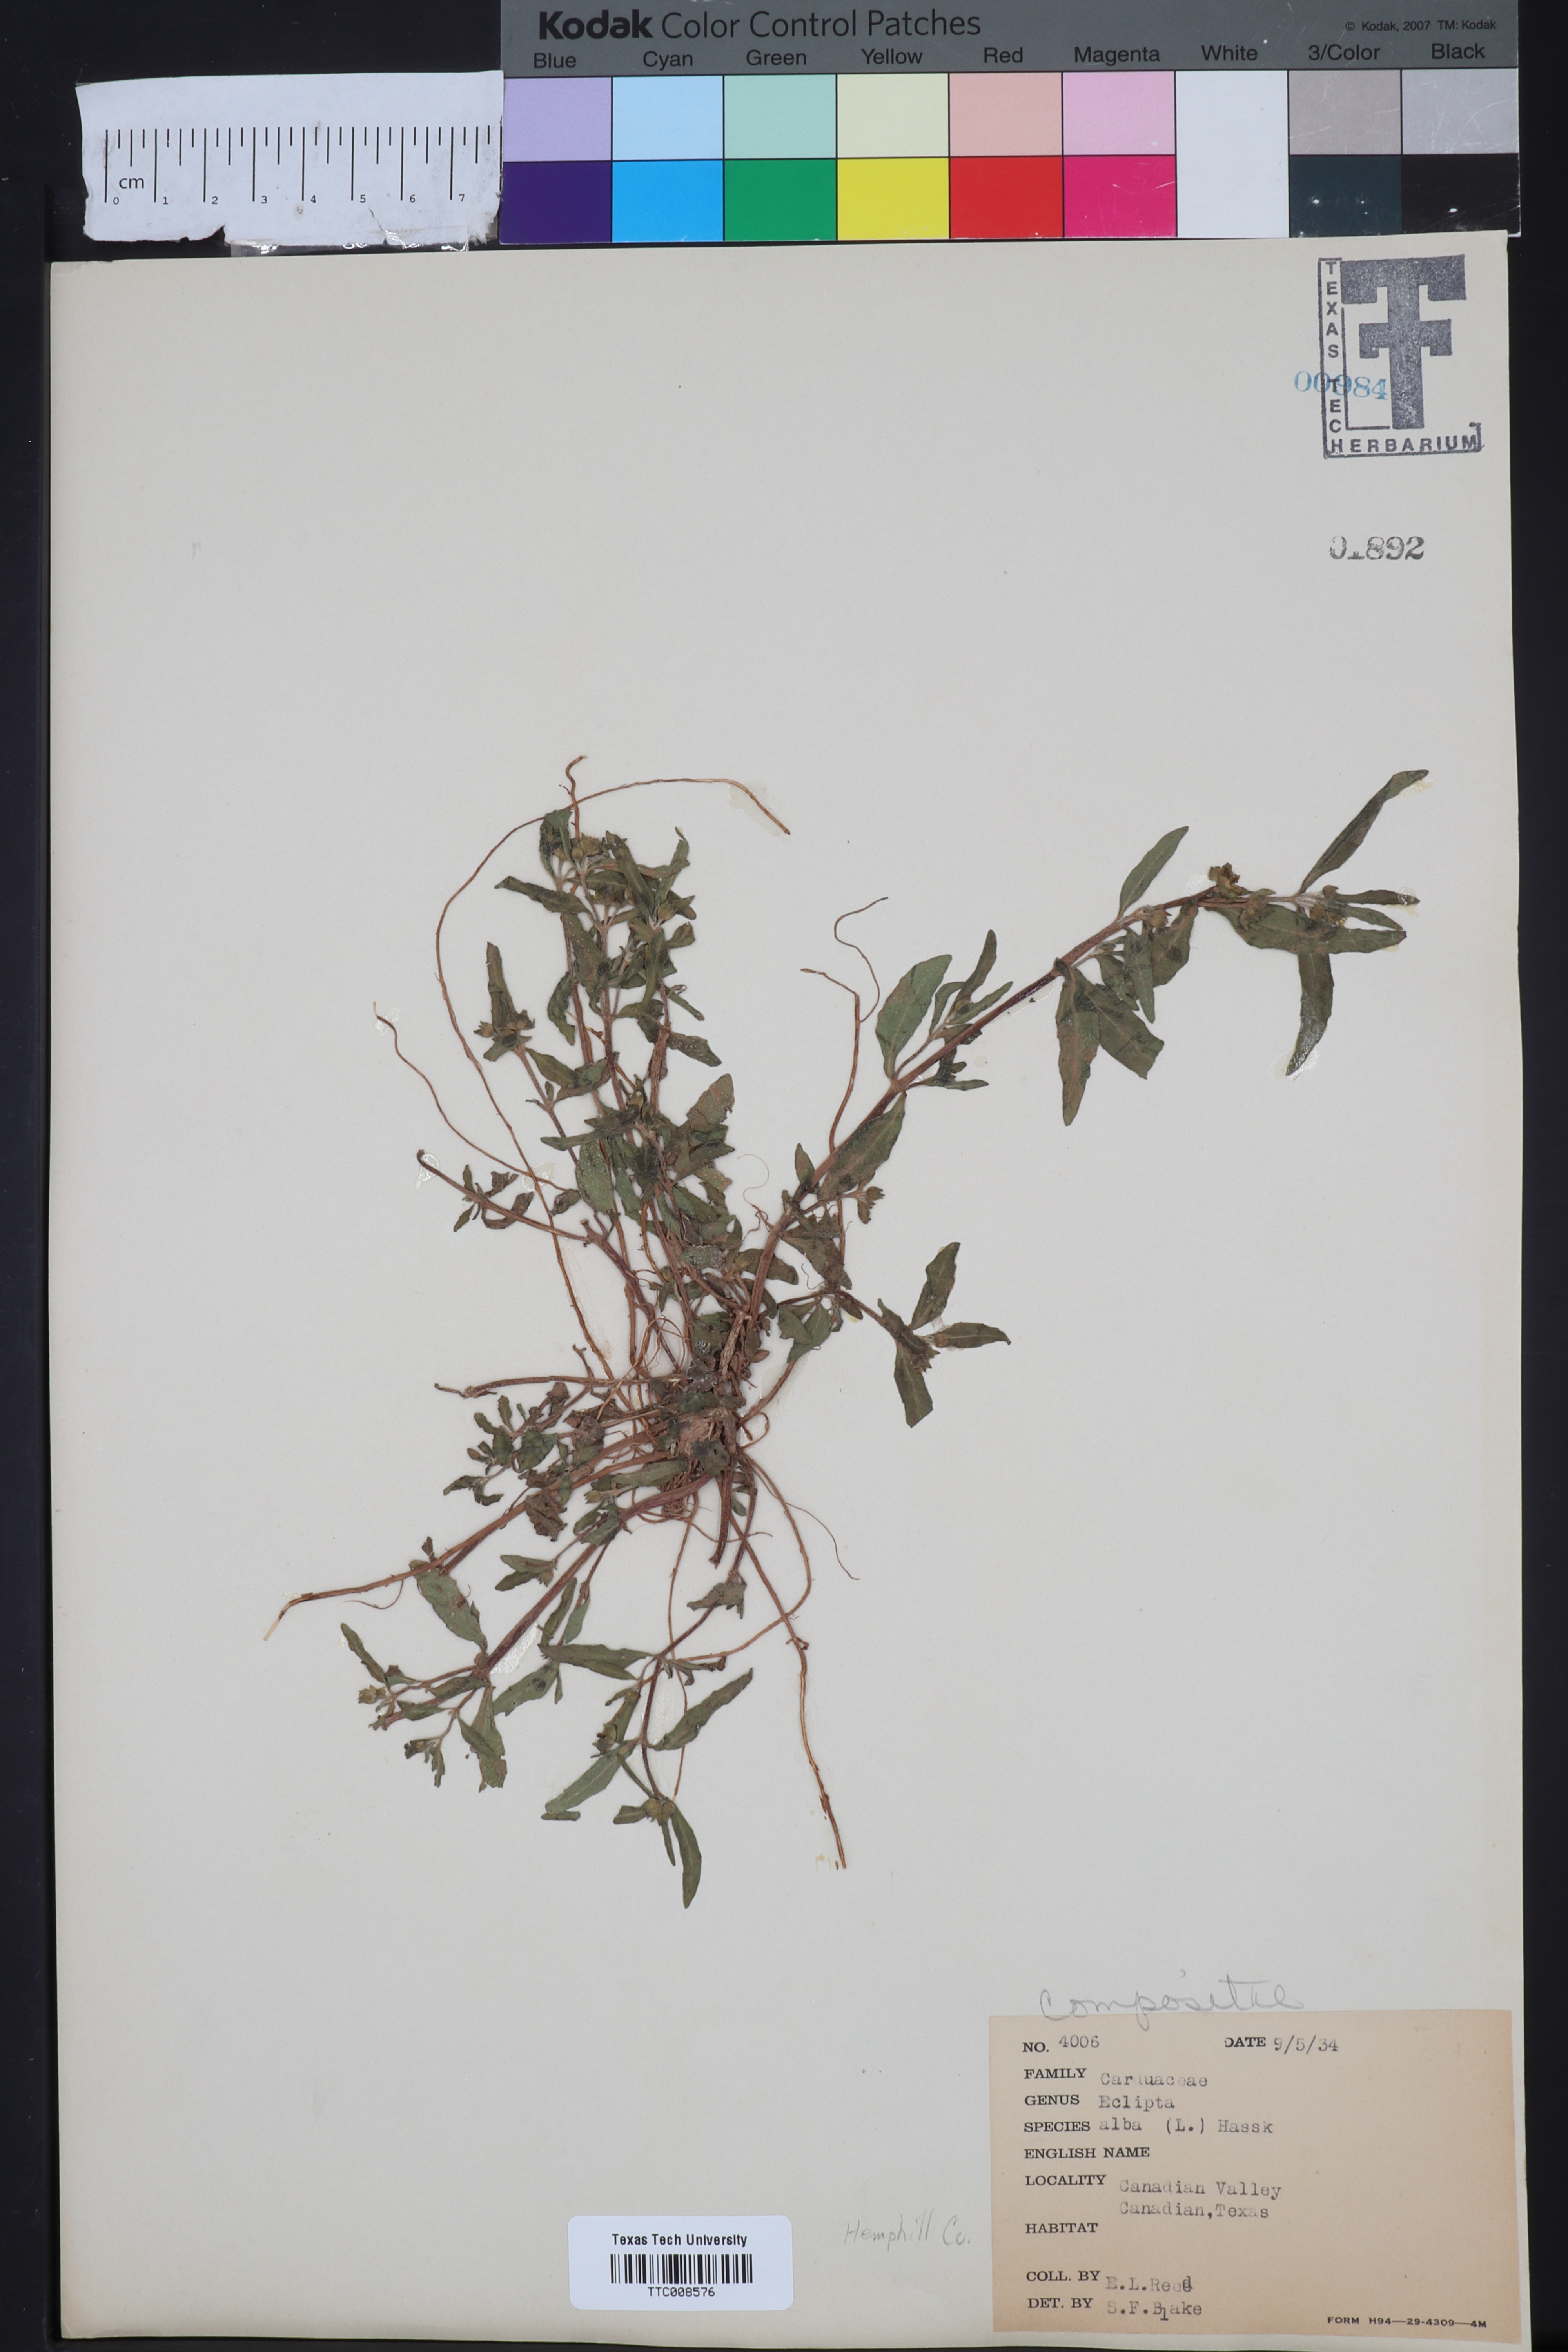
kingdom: Plantae
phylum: Tracheophyta
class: Magnoliopsida
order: Asterales
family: Asteraceae
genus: Eclipta
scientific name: Eclipta alba
